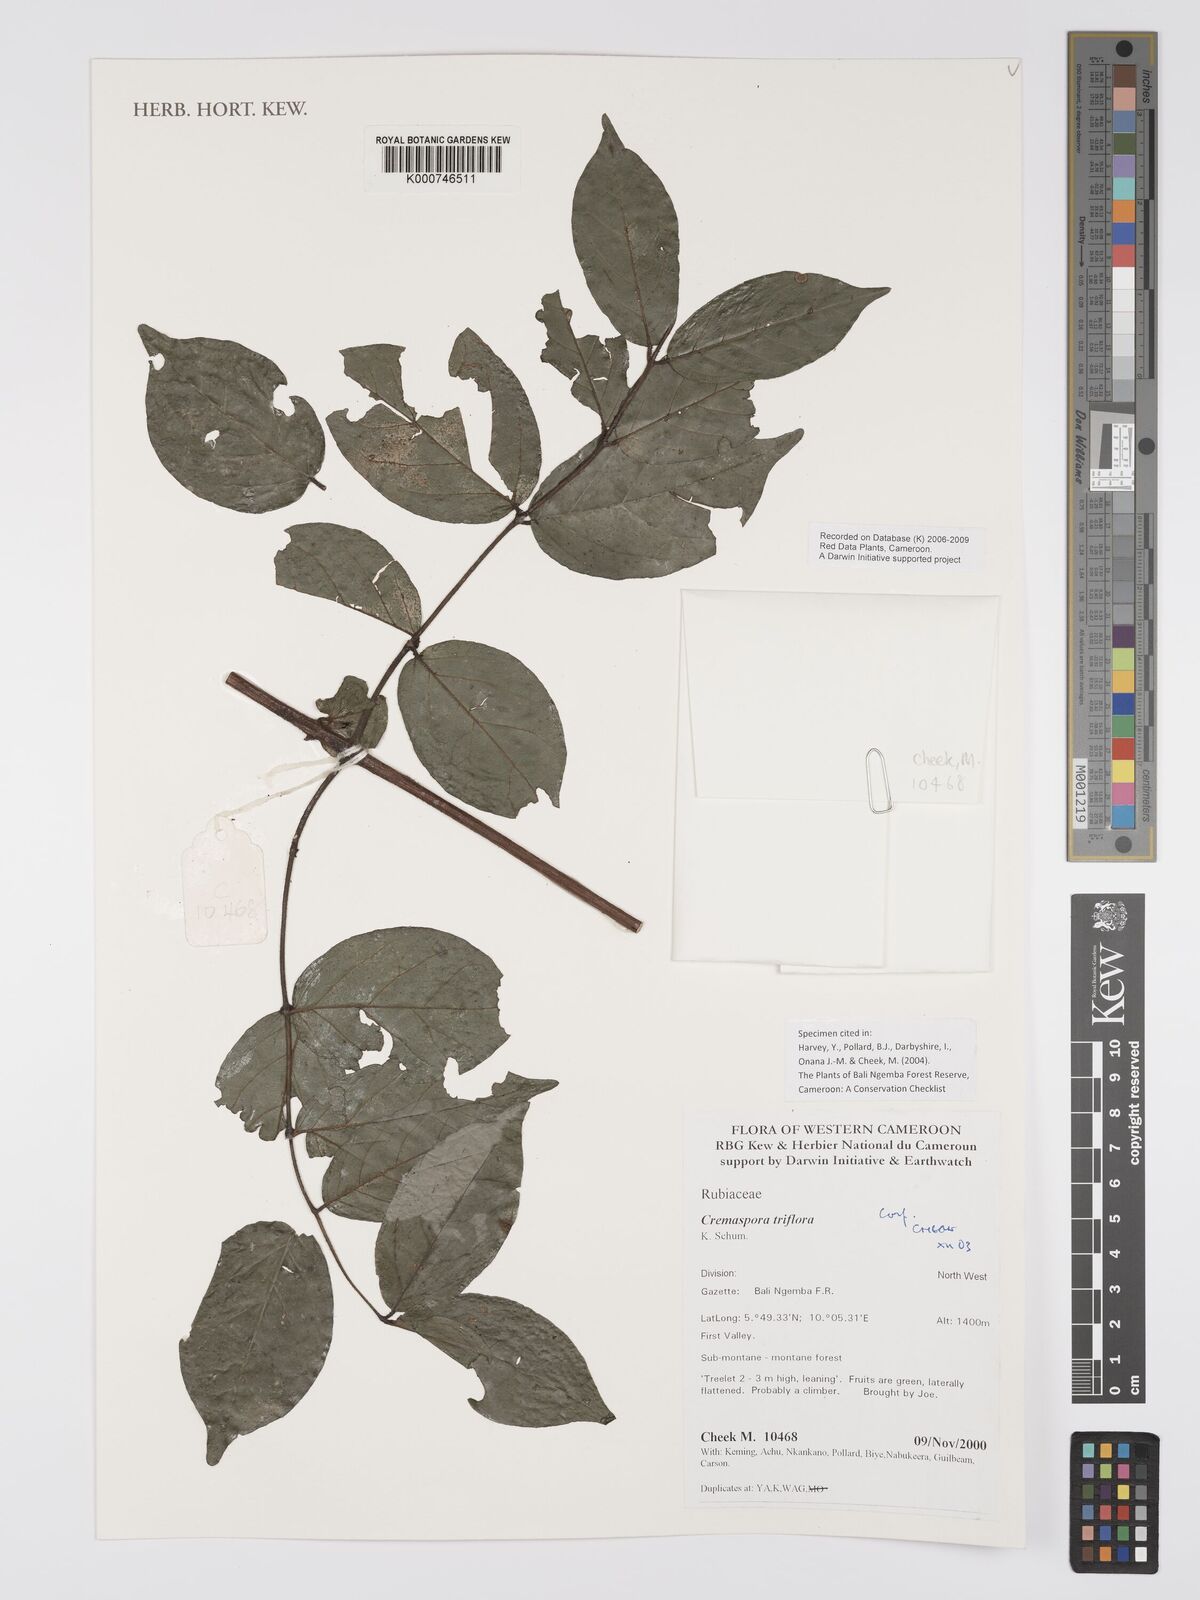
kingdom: Plantae
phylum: Tracheophyta
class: Magnoliopsida
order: Gentianales
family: Rubiaceae
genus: Cremaspora
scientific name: Cremaspora triflora
